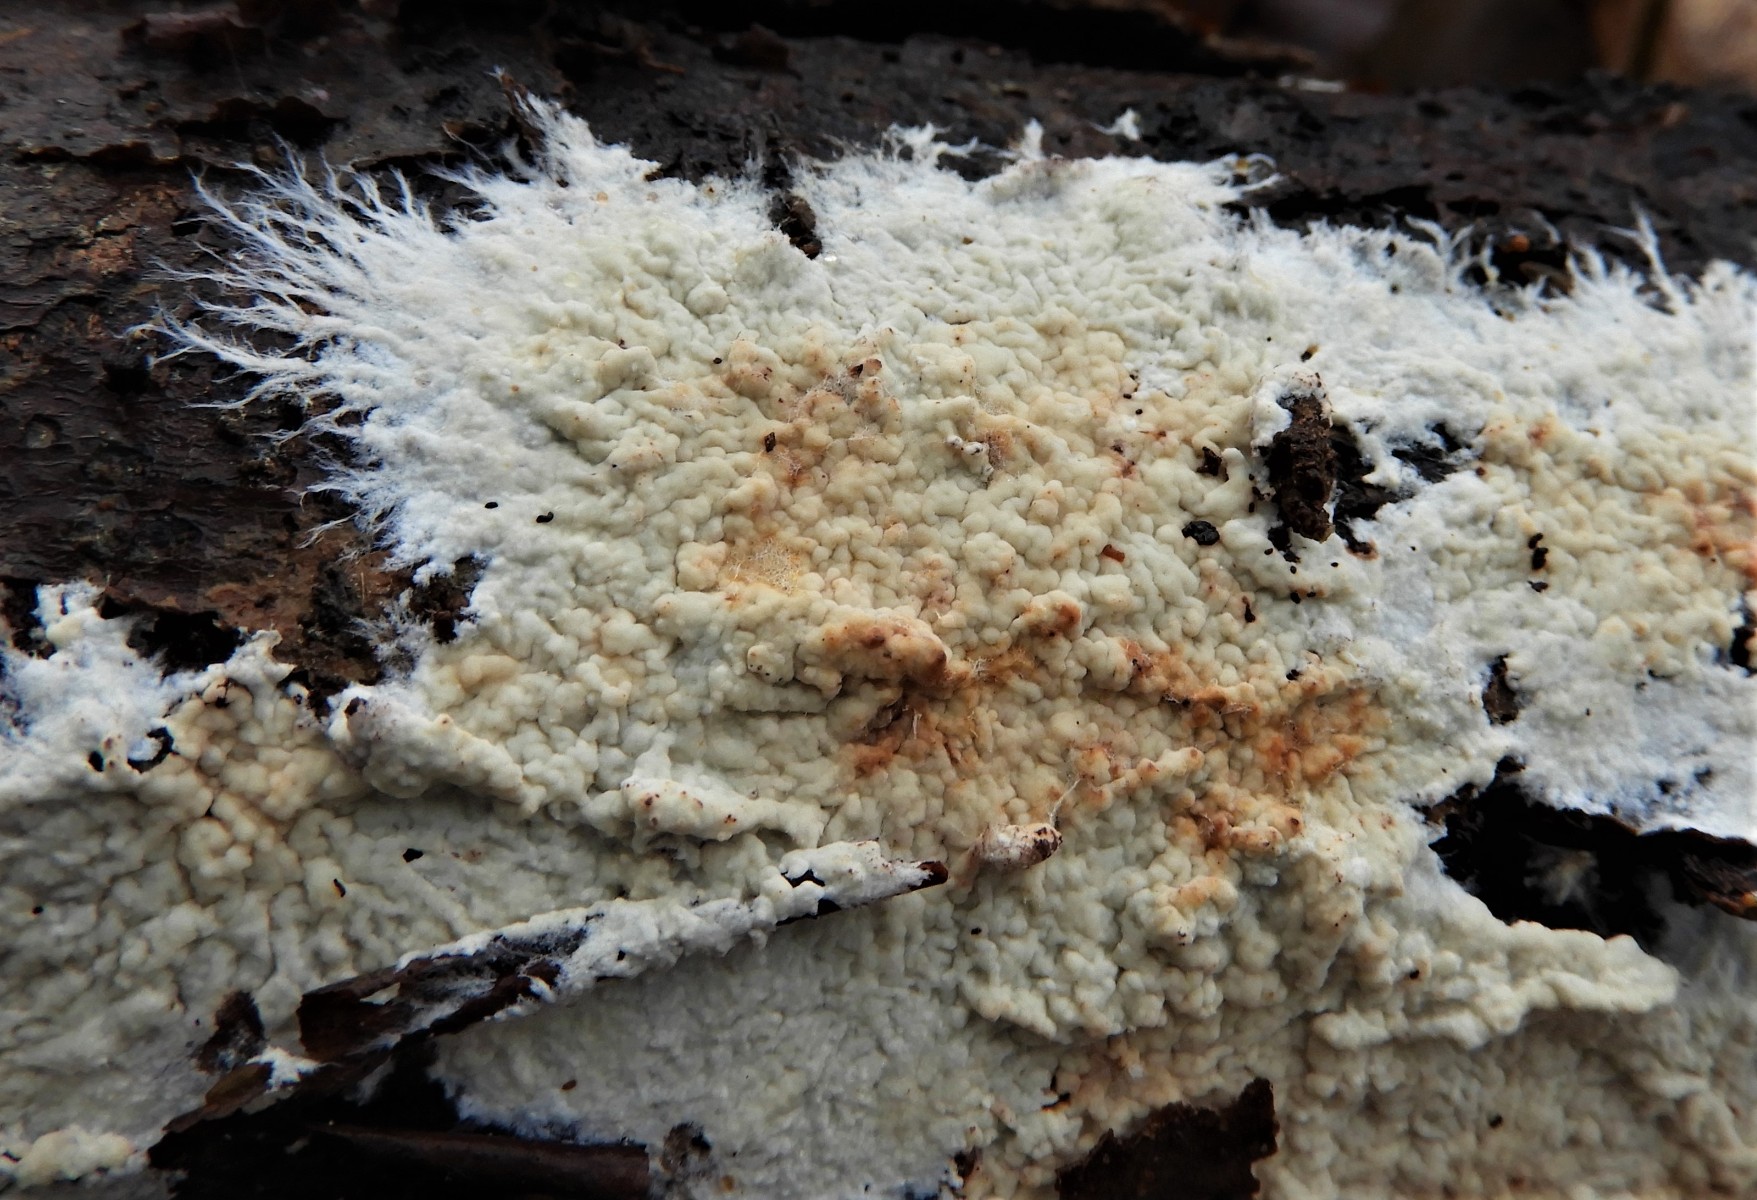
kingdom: Fungi
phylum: Basidiomycota
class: Agaricomycetes
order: Polyporales
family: Phanerochaetaceae
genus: Phanerochaete
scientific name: Phanerochaete
